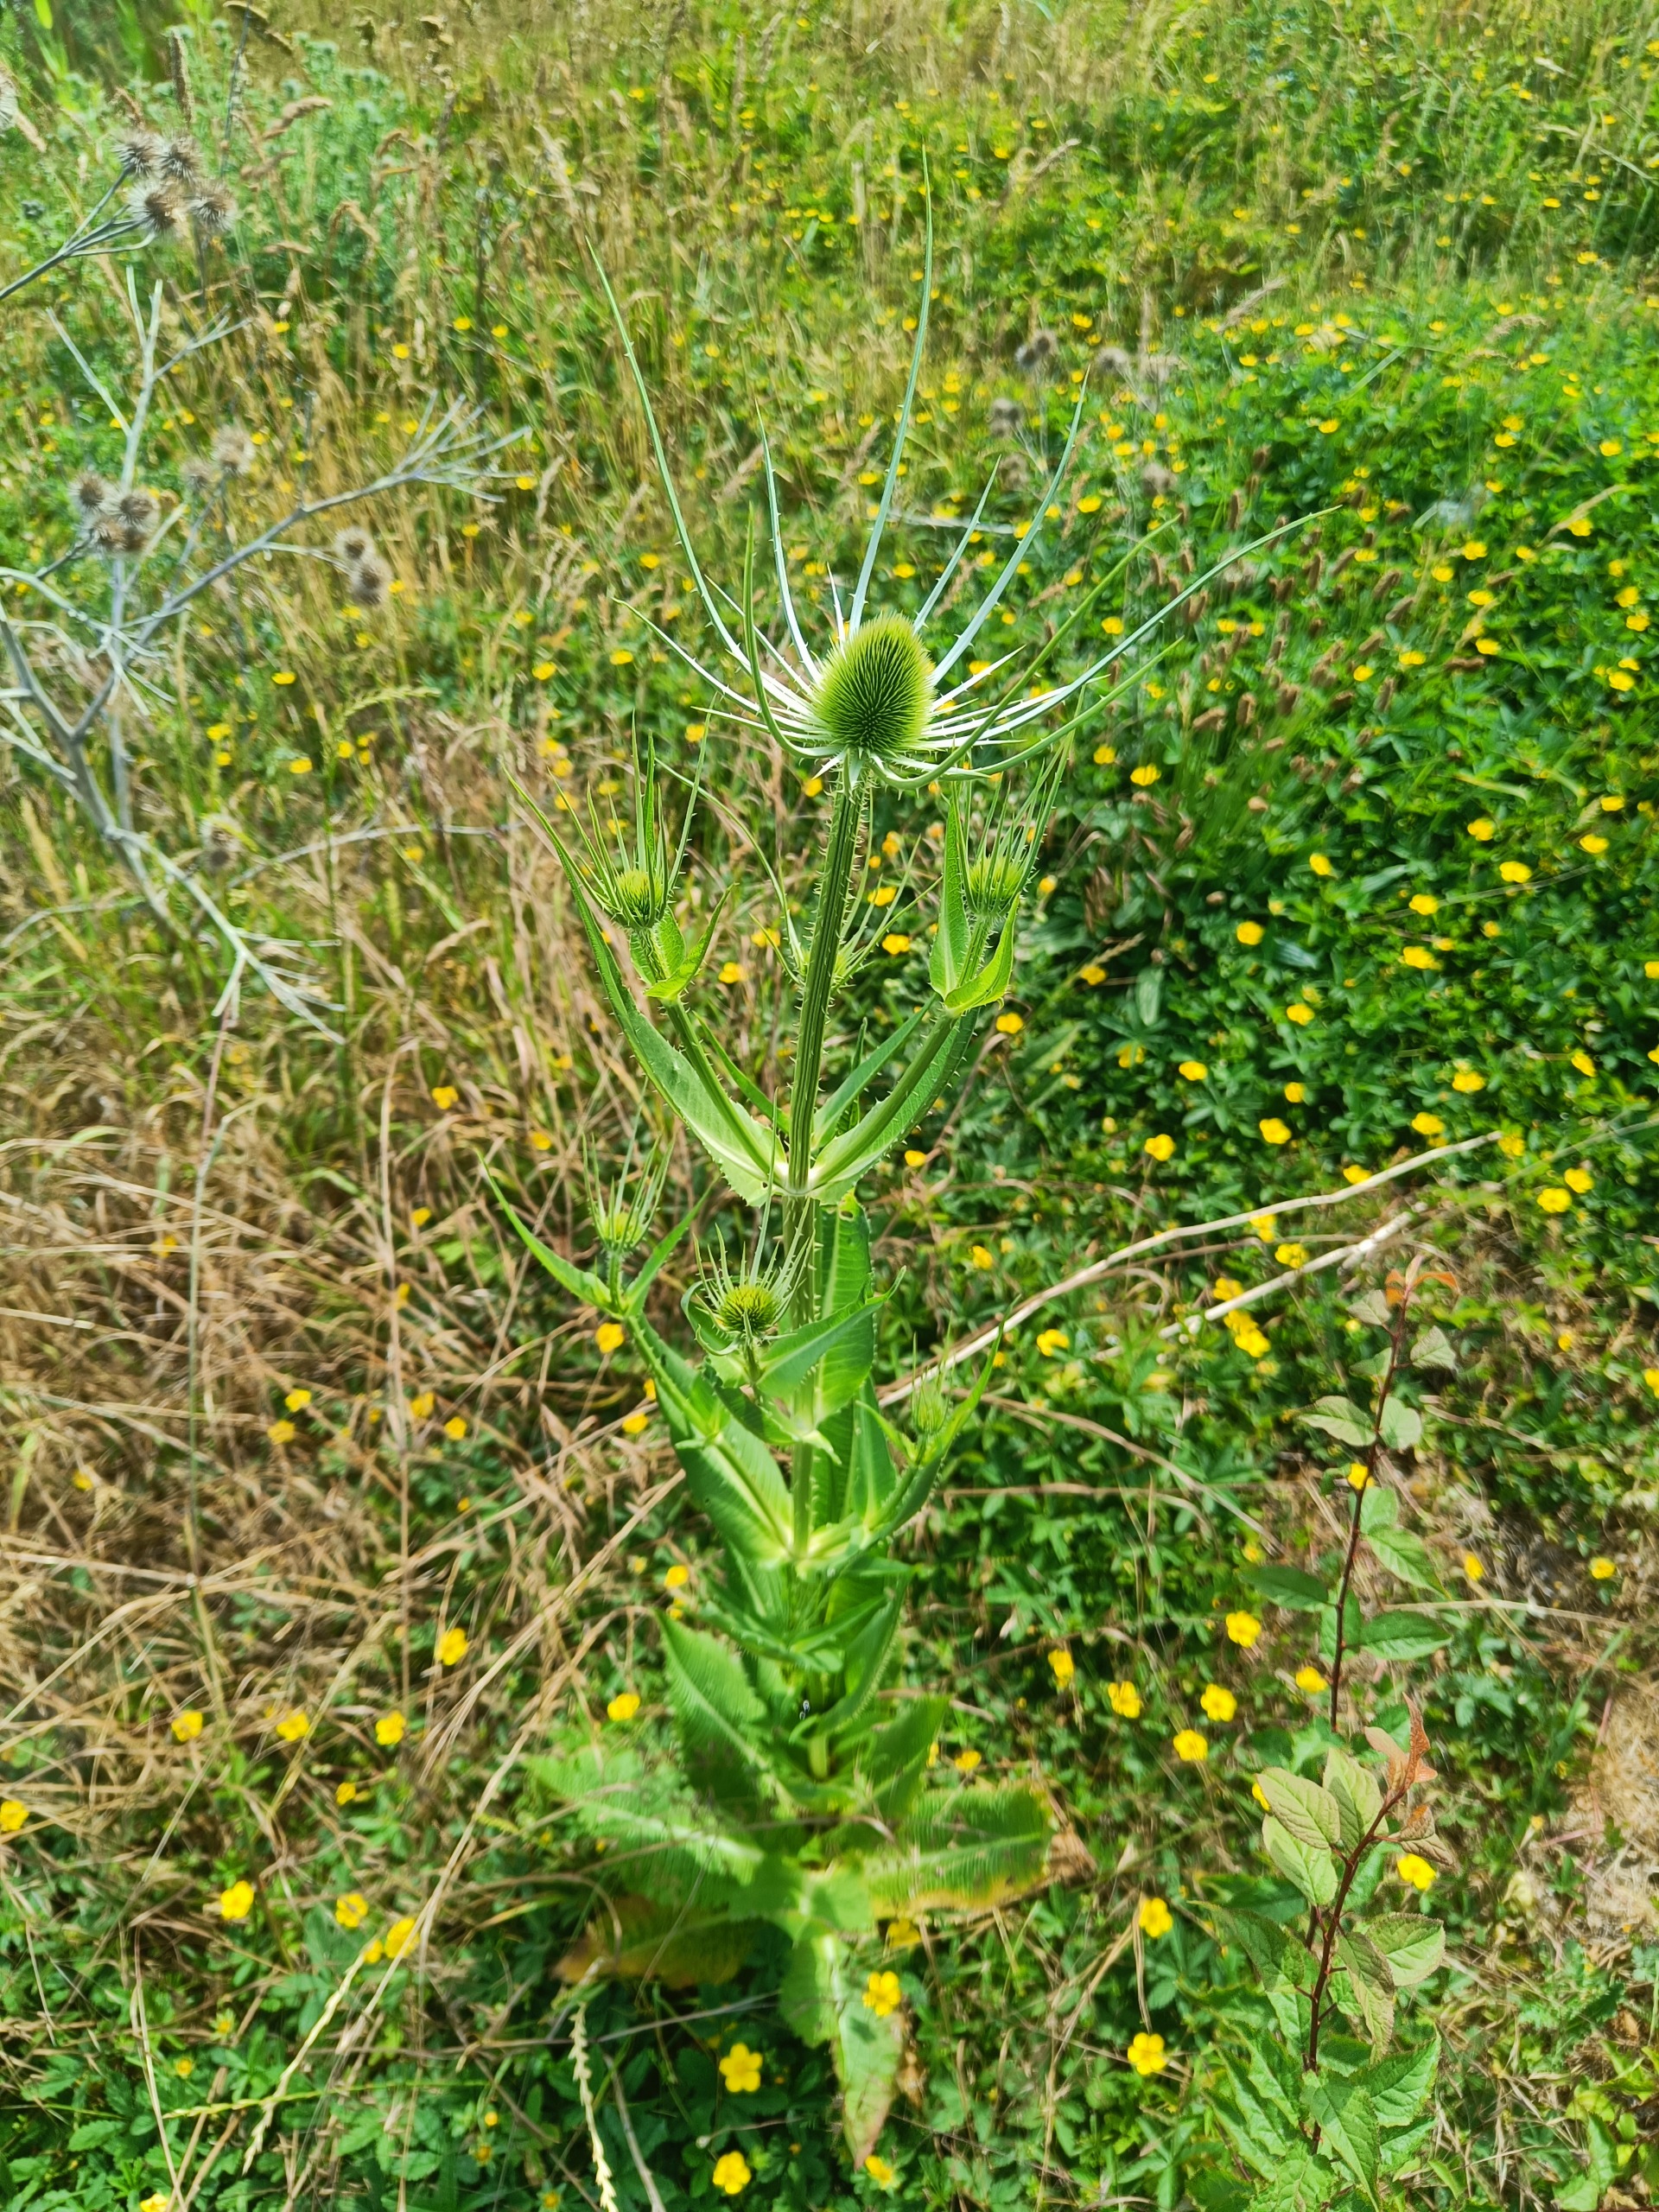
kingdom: Plantae
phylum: Tracheophyta
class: Magnoliopsida
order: Dipsacales
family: Caprifoliaceae
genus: Dipsacus
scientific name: Dipsacus fullonum
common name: Gærde-kartebolle
